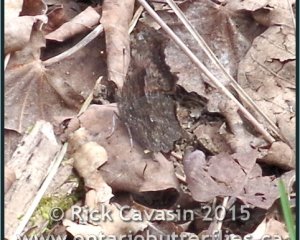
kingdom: Animalia
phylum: Arthropoda
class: Insecta
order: Lepidoptera
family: Nymphalidae
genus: Polygonia
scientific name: Polygonia progne
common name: Gray Comma
